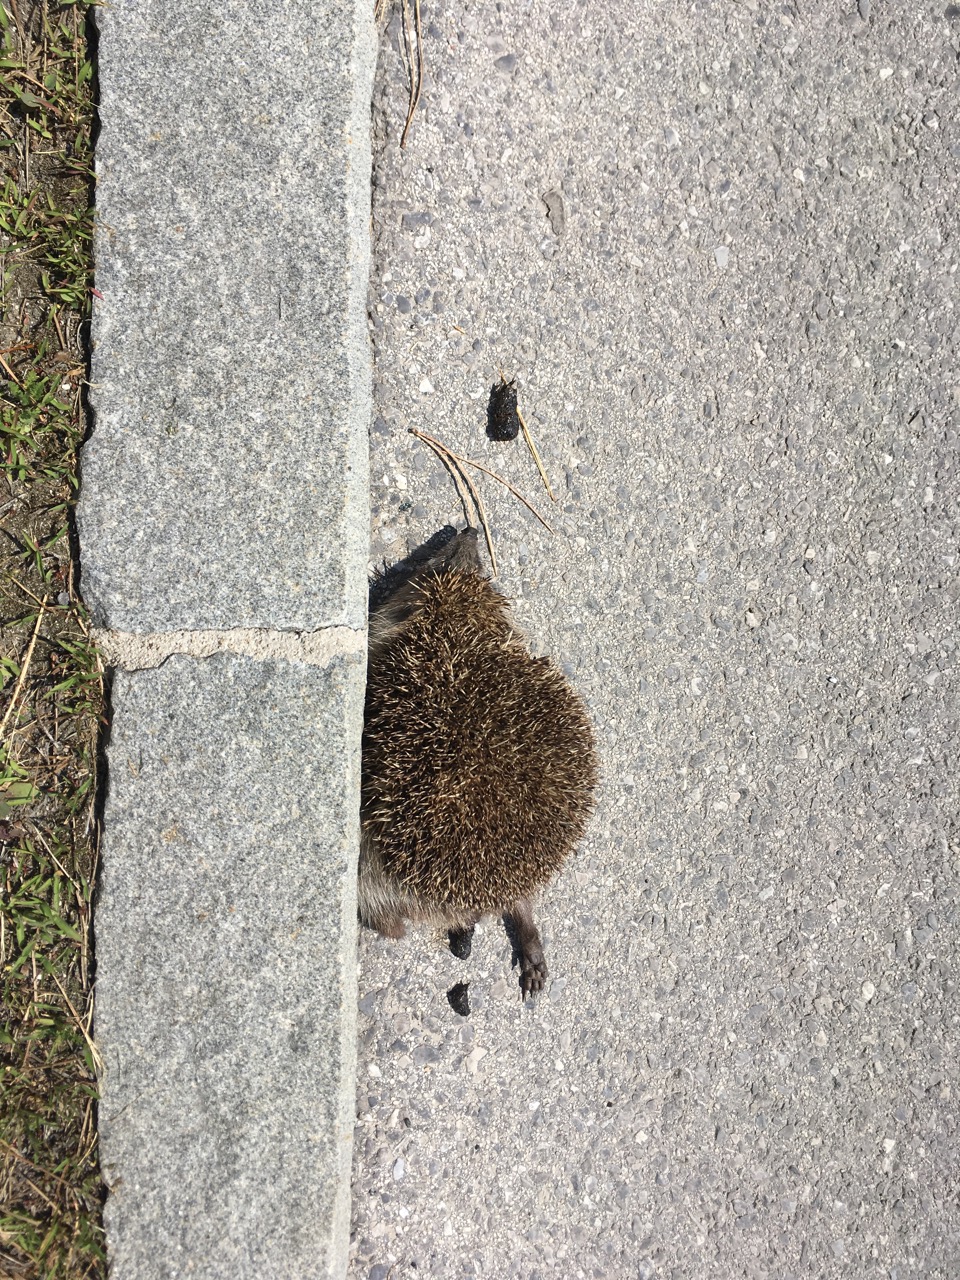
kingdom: Animalia
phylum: Chordata
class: Mammalia
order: Erinaceomorpha
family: Erinaceidae
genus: Erinaceus
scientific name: Erinaceus
